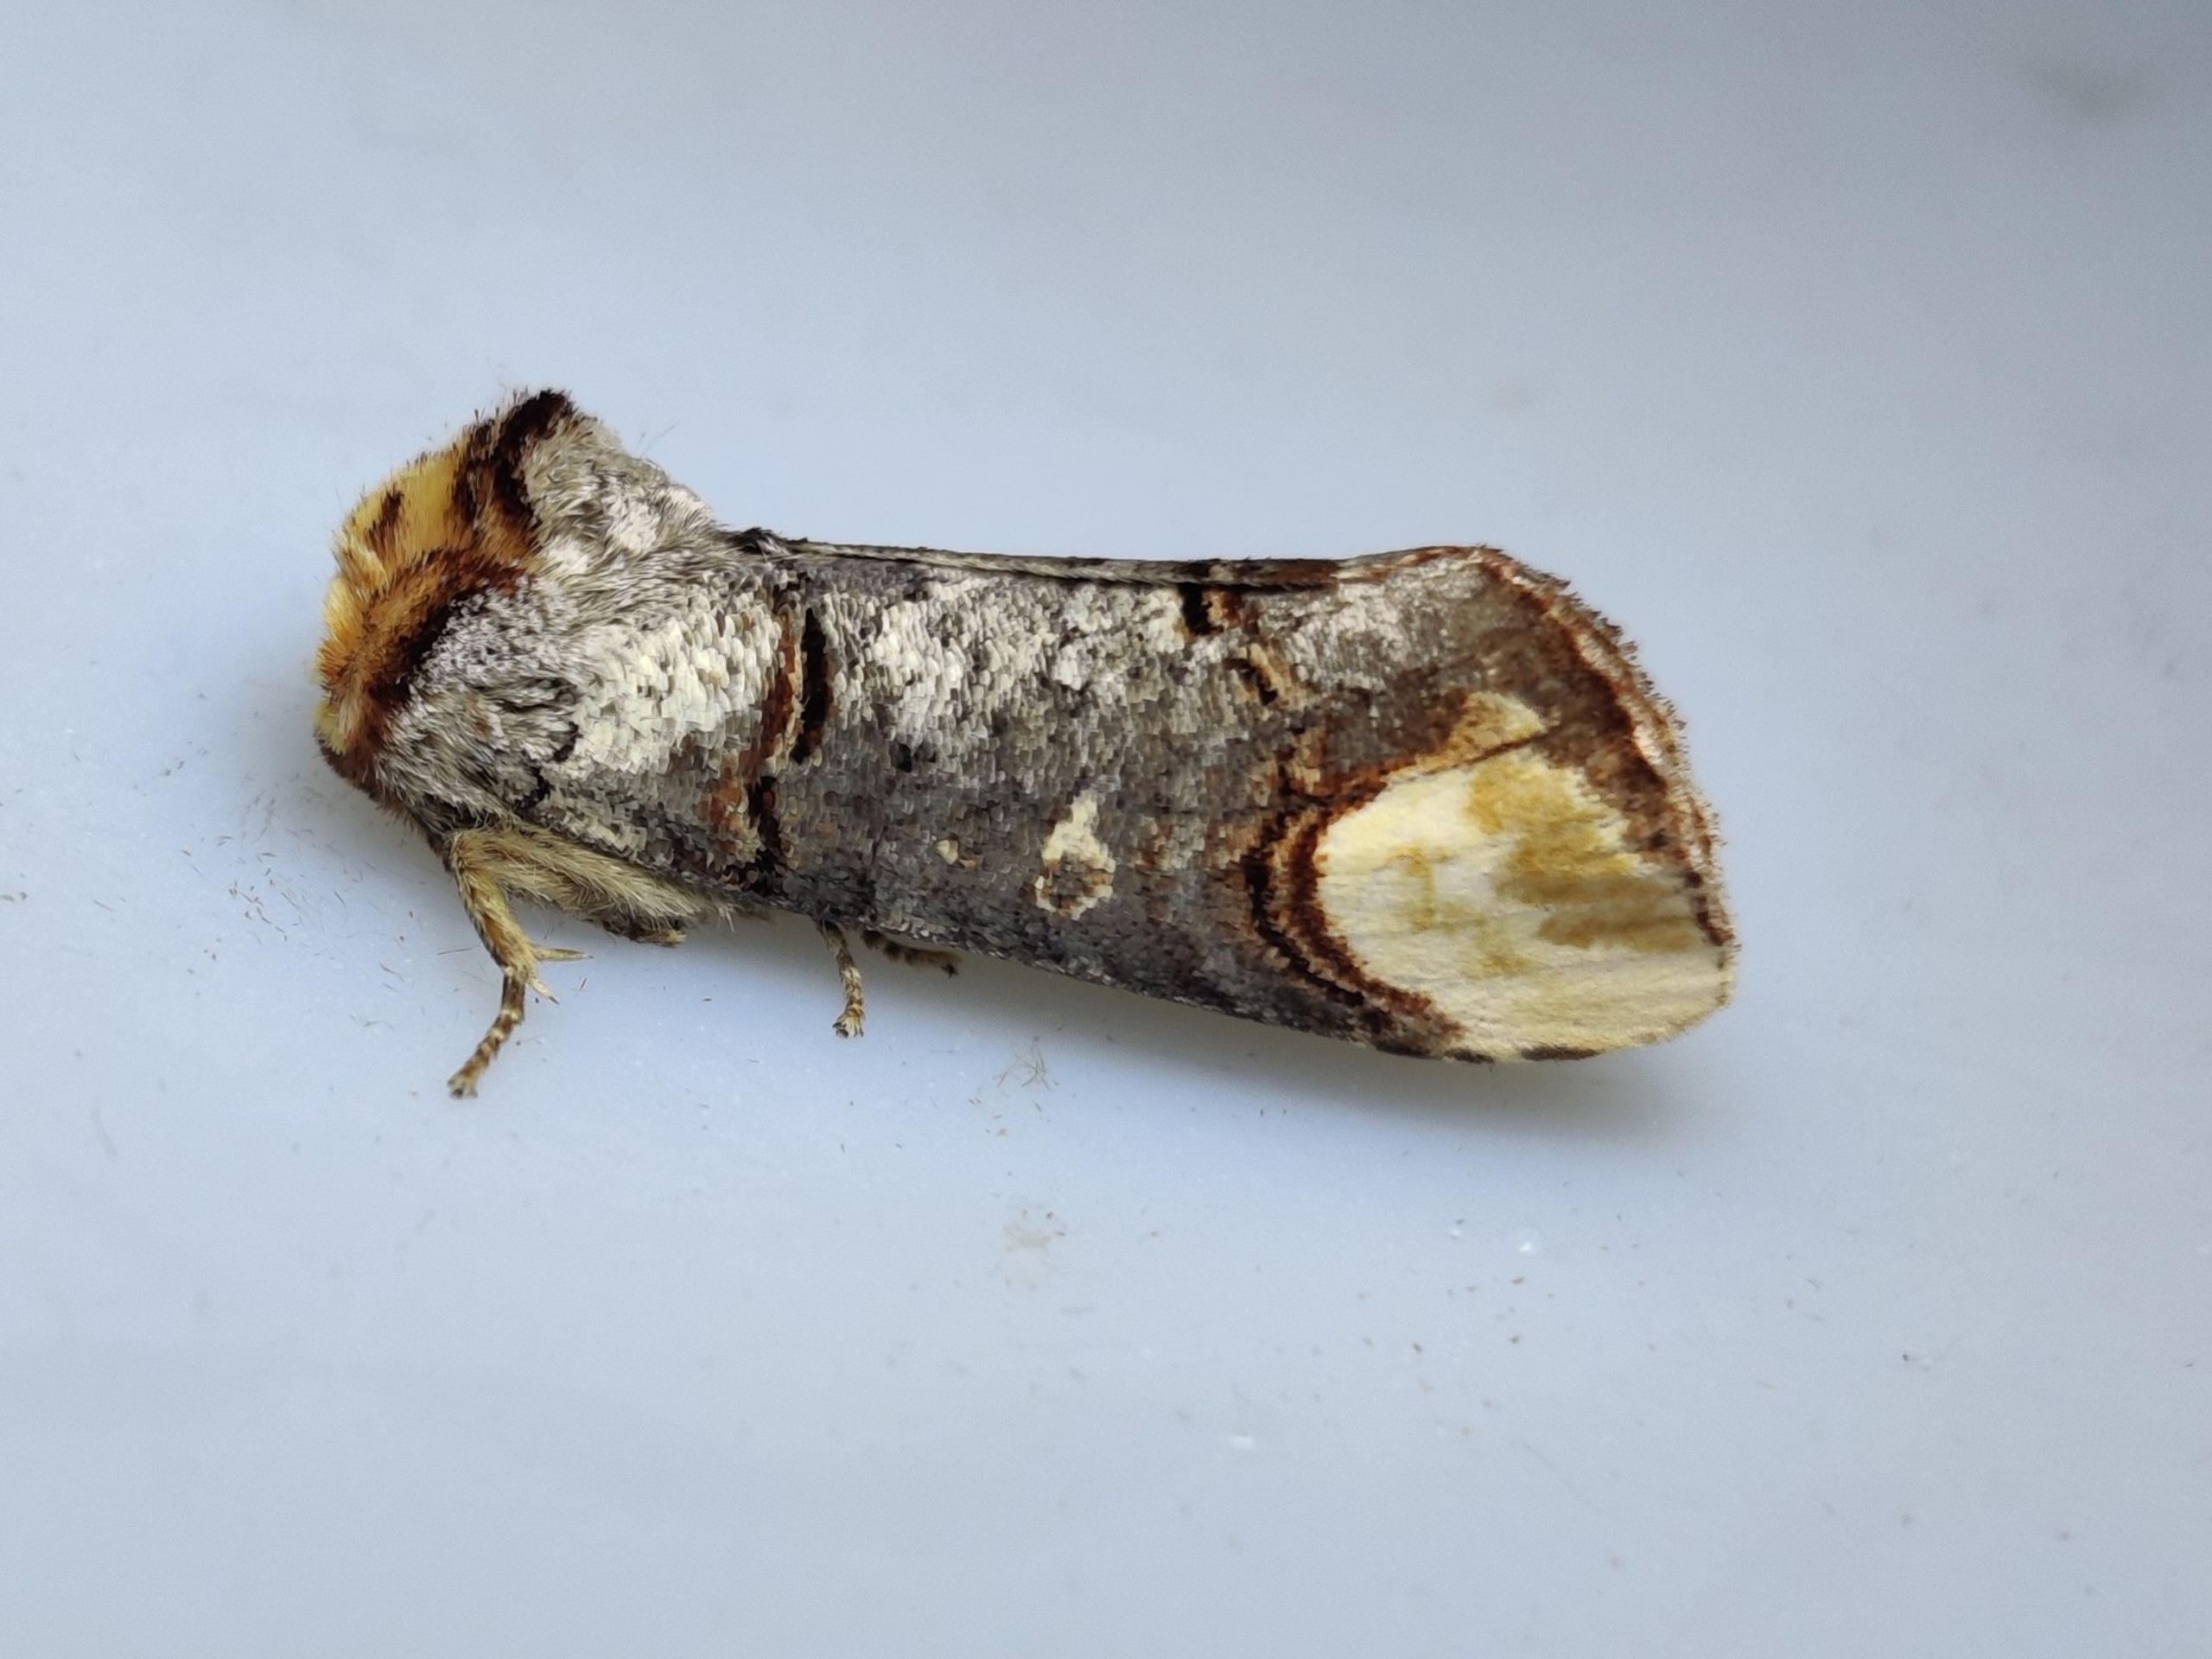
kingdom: Animalia
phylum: Arthropoda
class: Insecta
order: Lepidoptera
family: Notodontidae
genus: Phalera
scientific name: Phalera bucephala
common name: Måneplet
